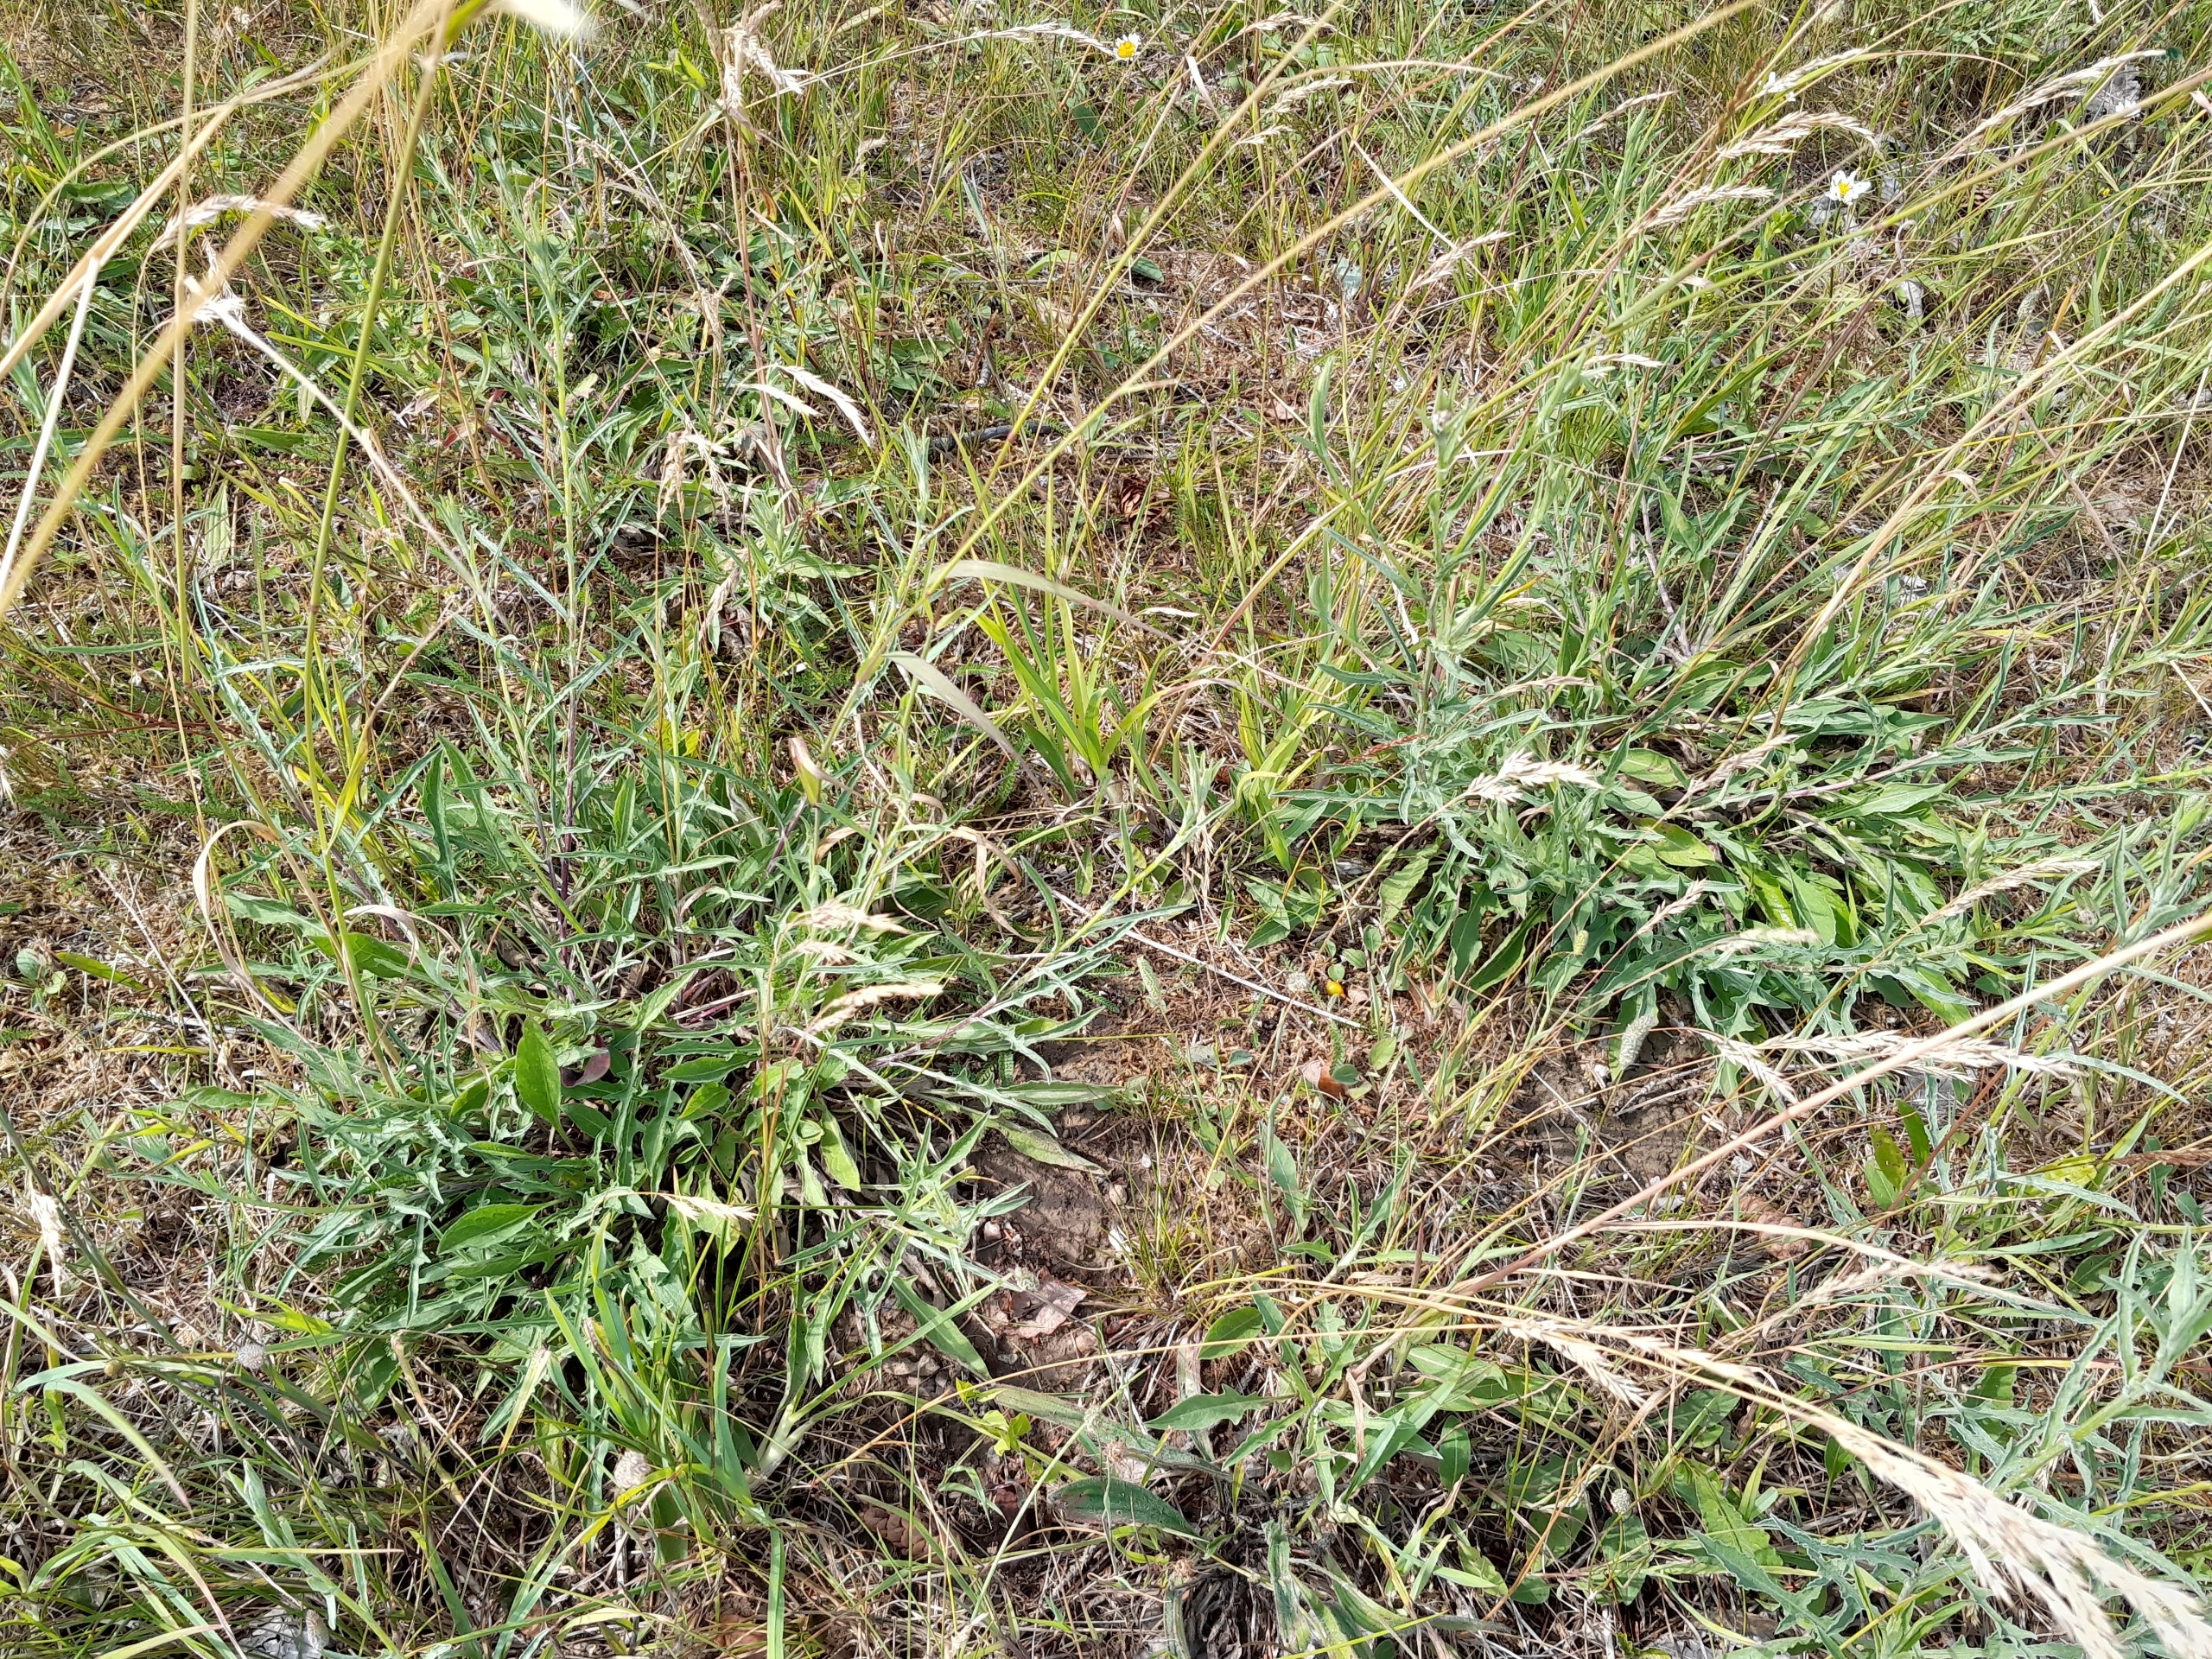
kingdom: Plantae
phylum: Tracheophyta
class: Magnoliopsida
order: Asterales
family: Asteraceae
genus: Centaurea
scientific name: Centaurea jacea
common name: Almindelig knopurt
